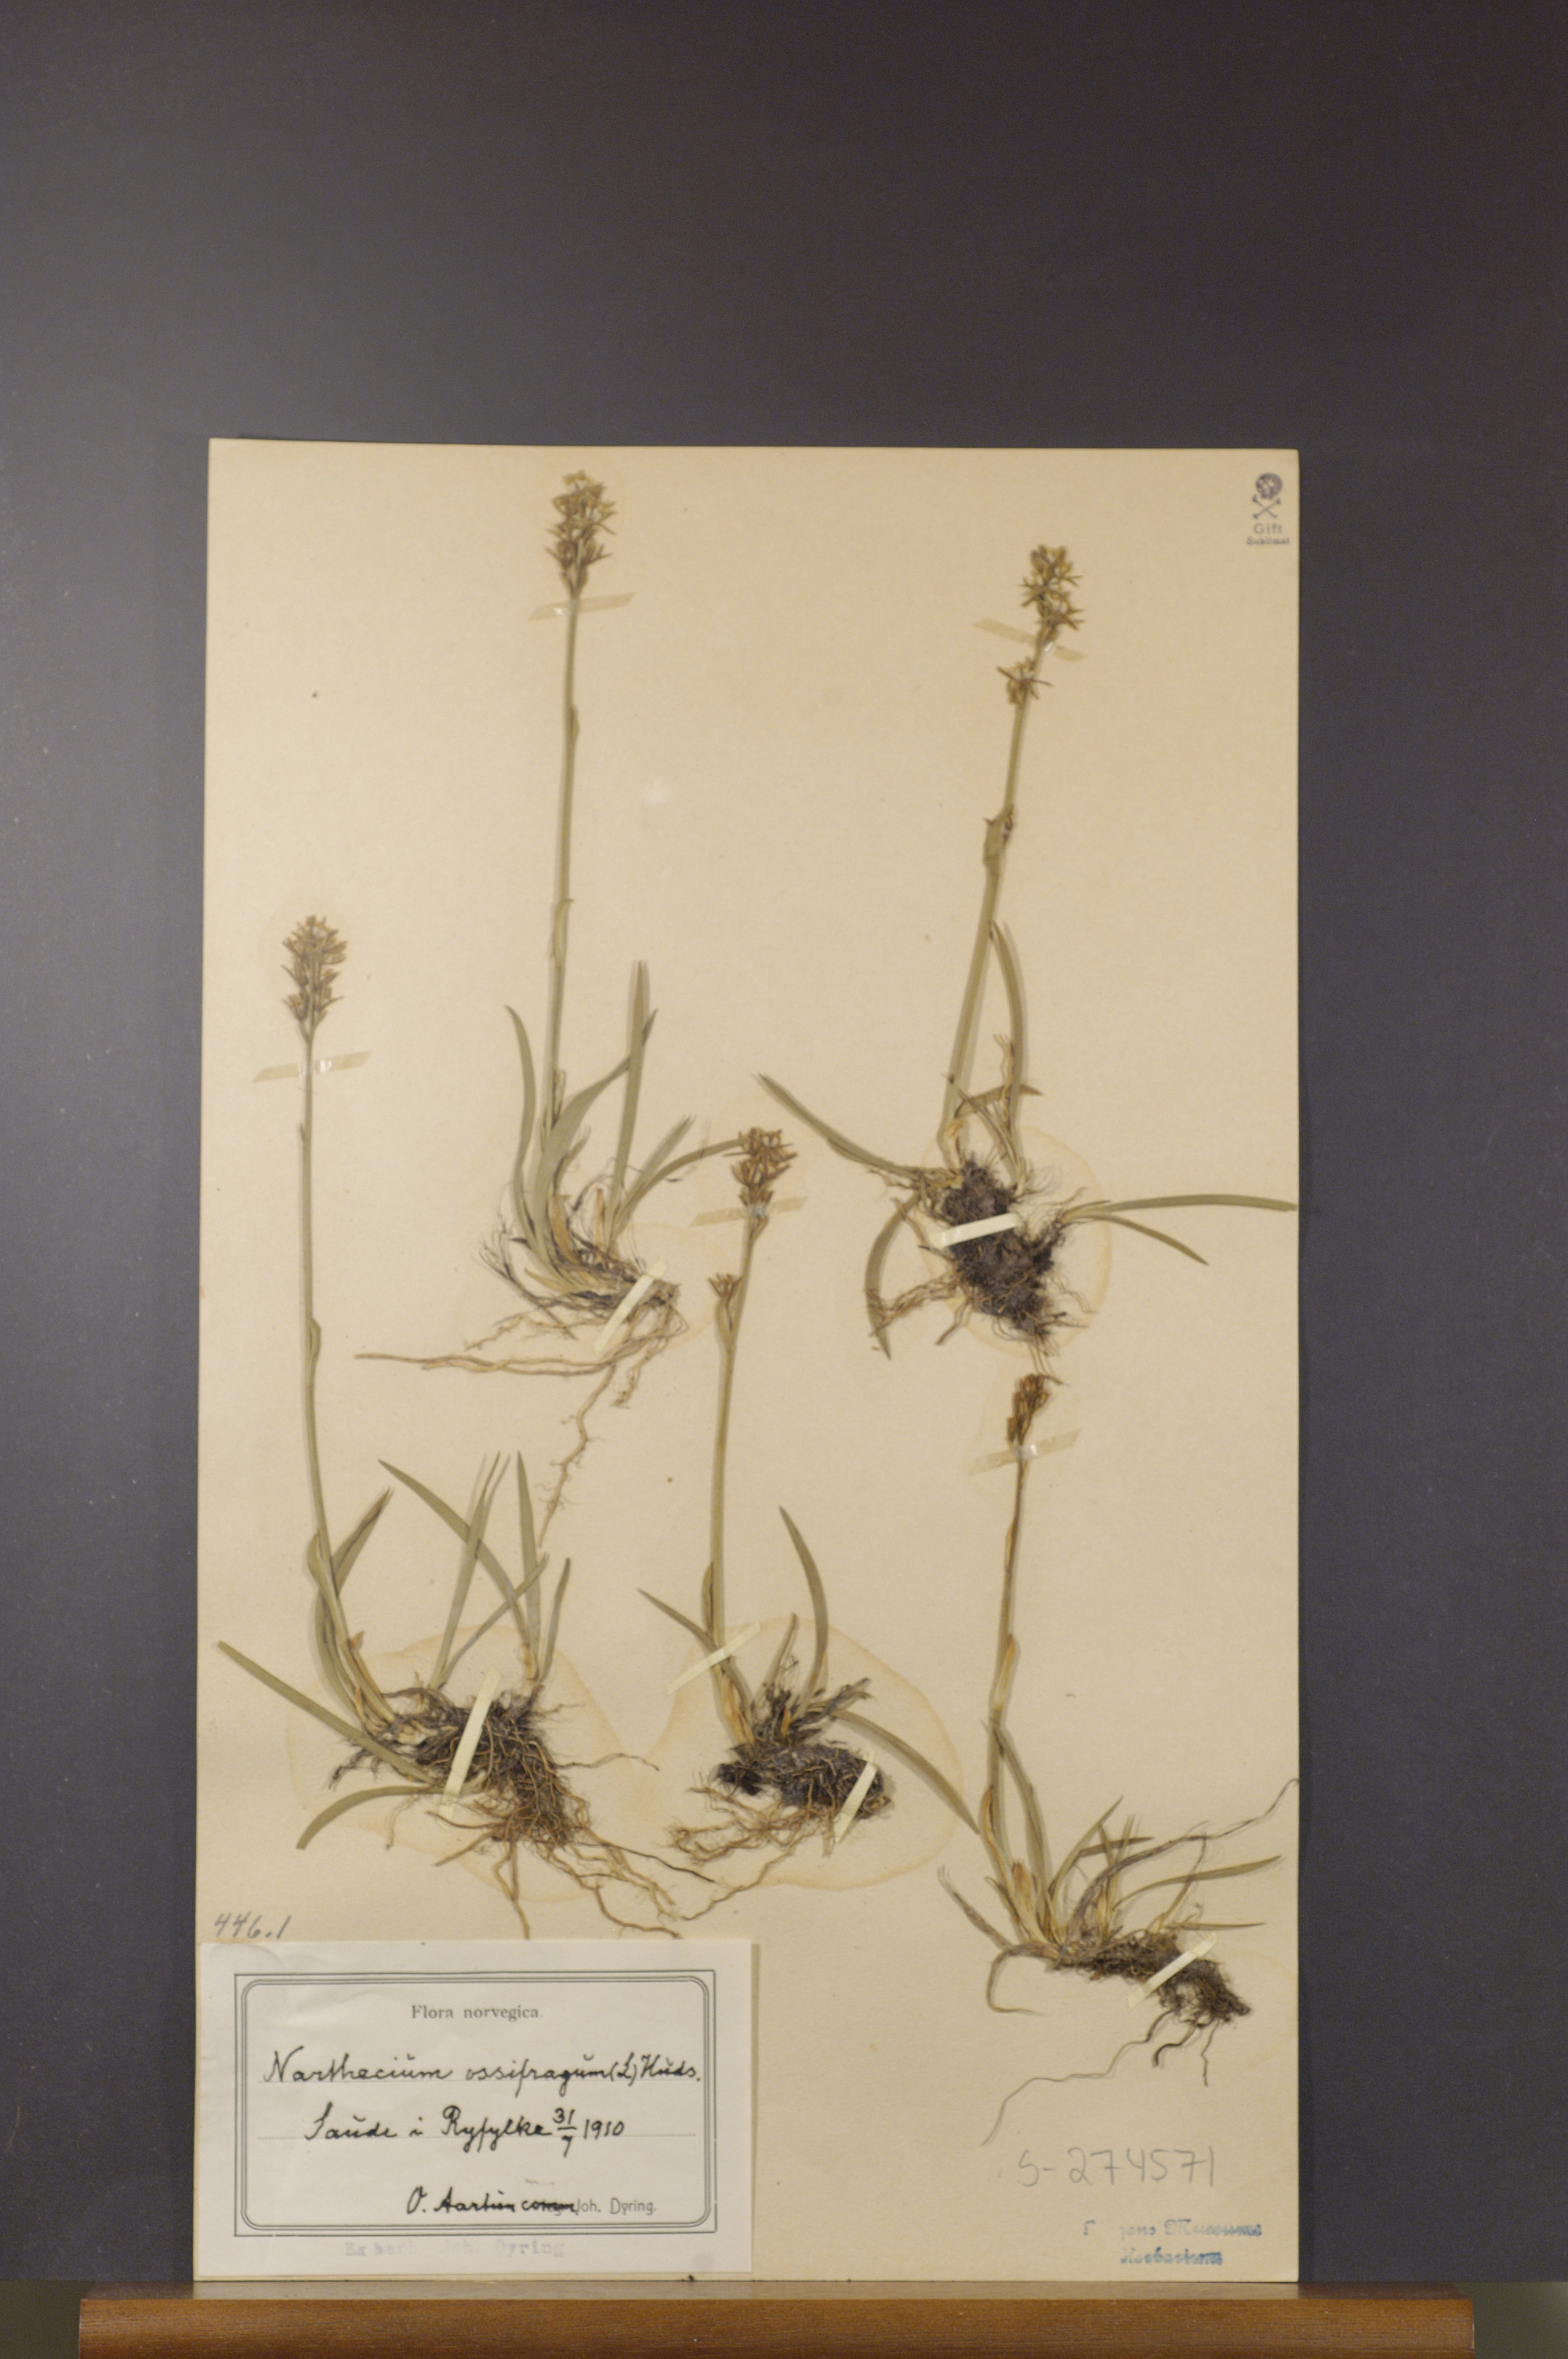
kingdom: Plantae
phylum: Tracheophyta
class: Liliopsida
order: Dioscoreales
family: Nartheciaceae
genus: Narthecium
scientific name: Narthecium ossifragum
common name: Bog asphodel
